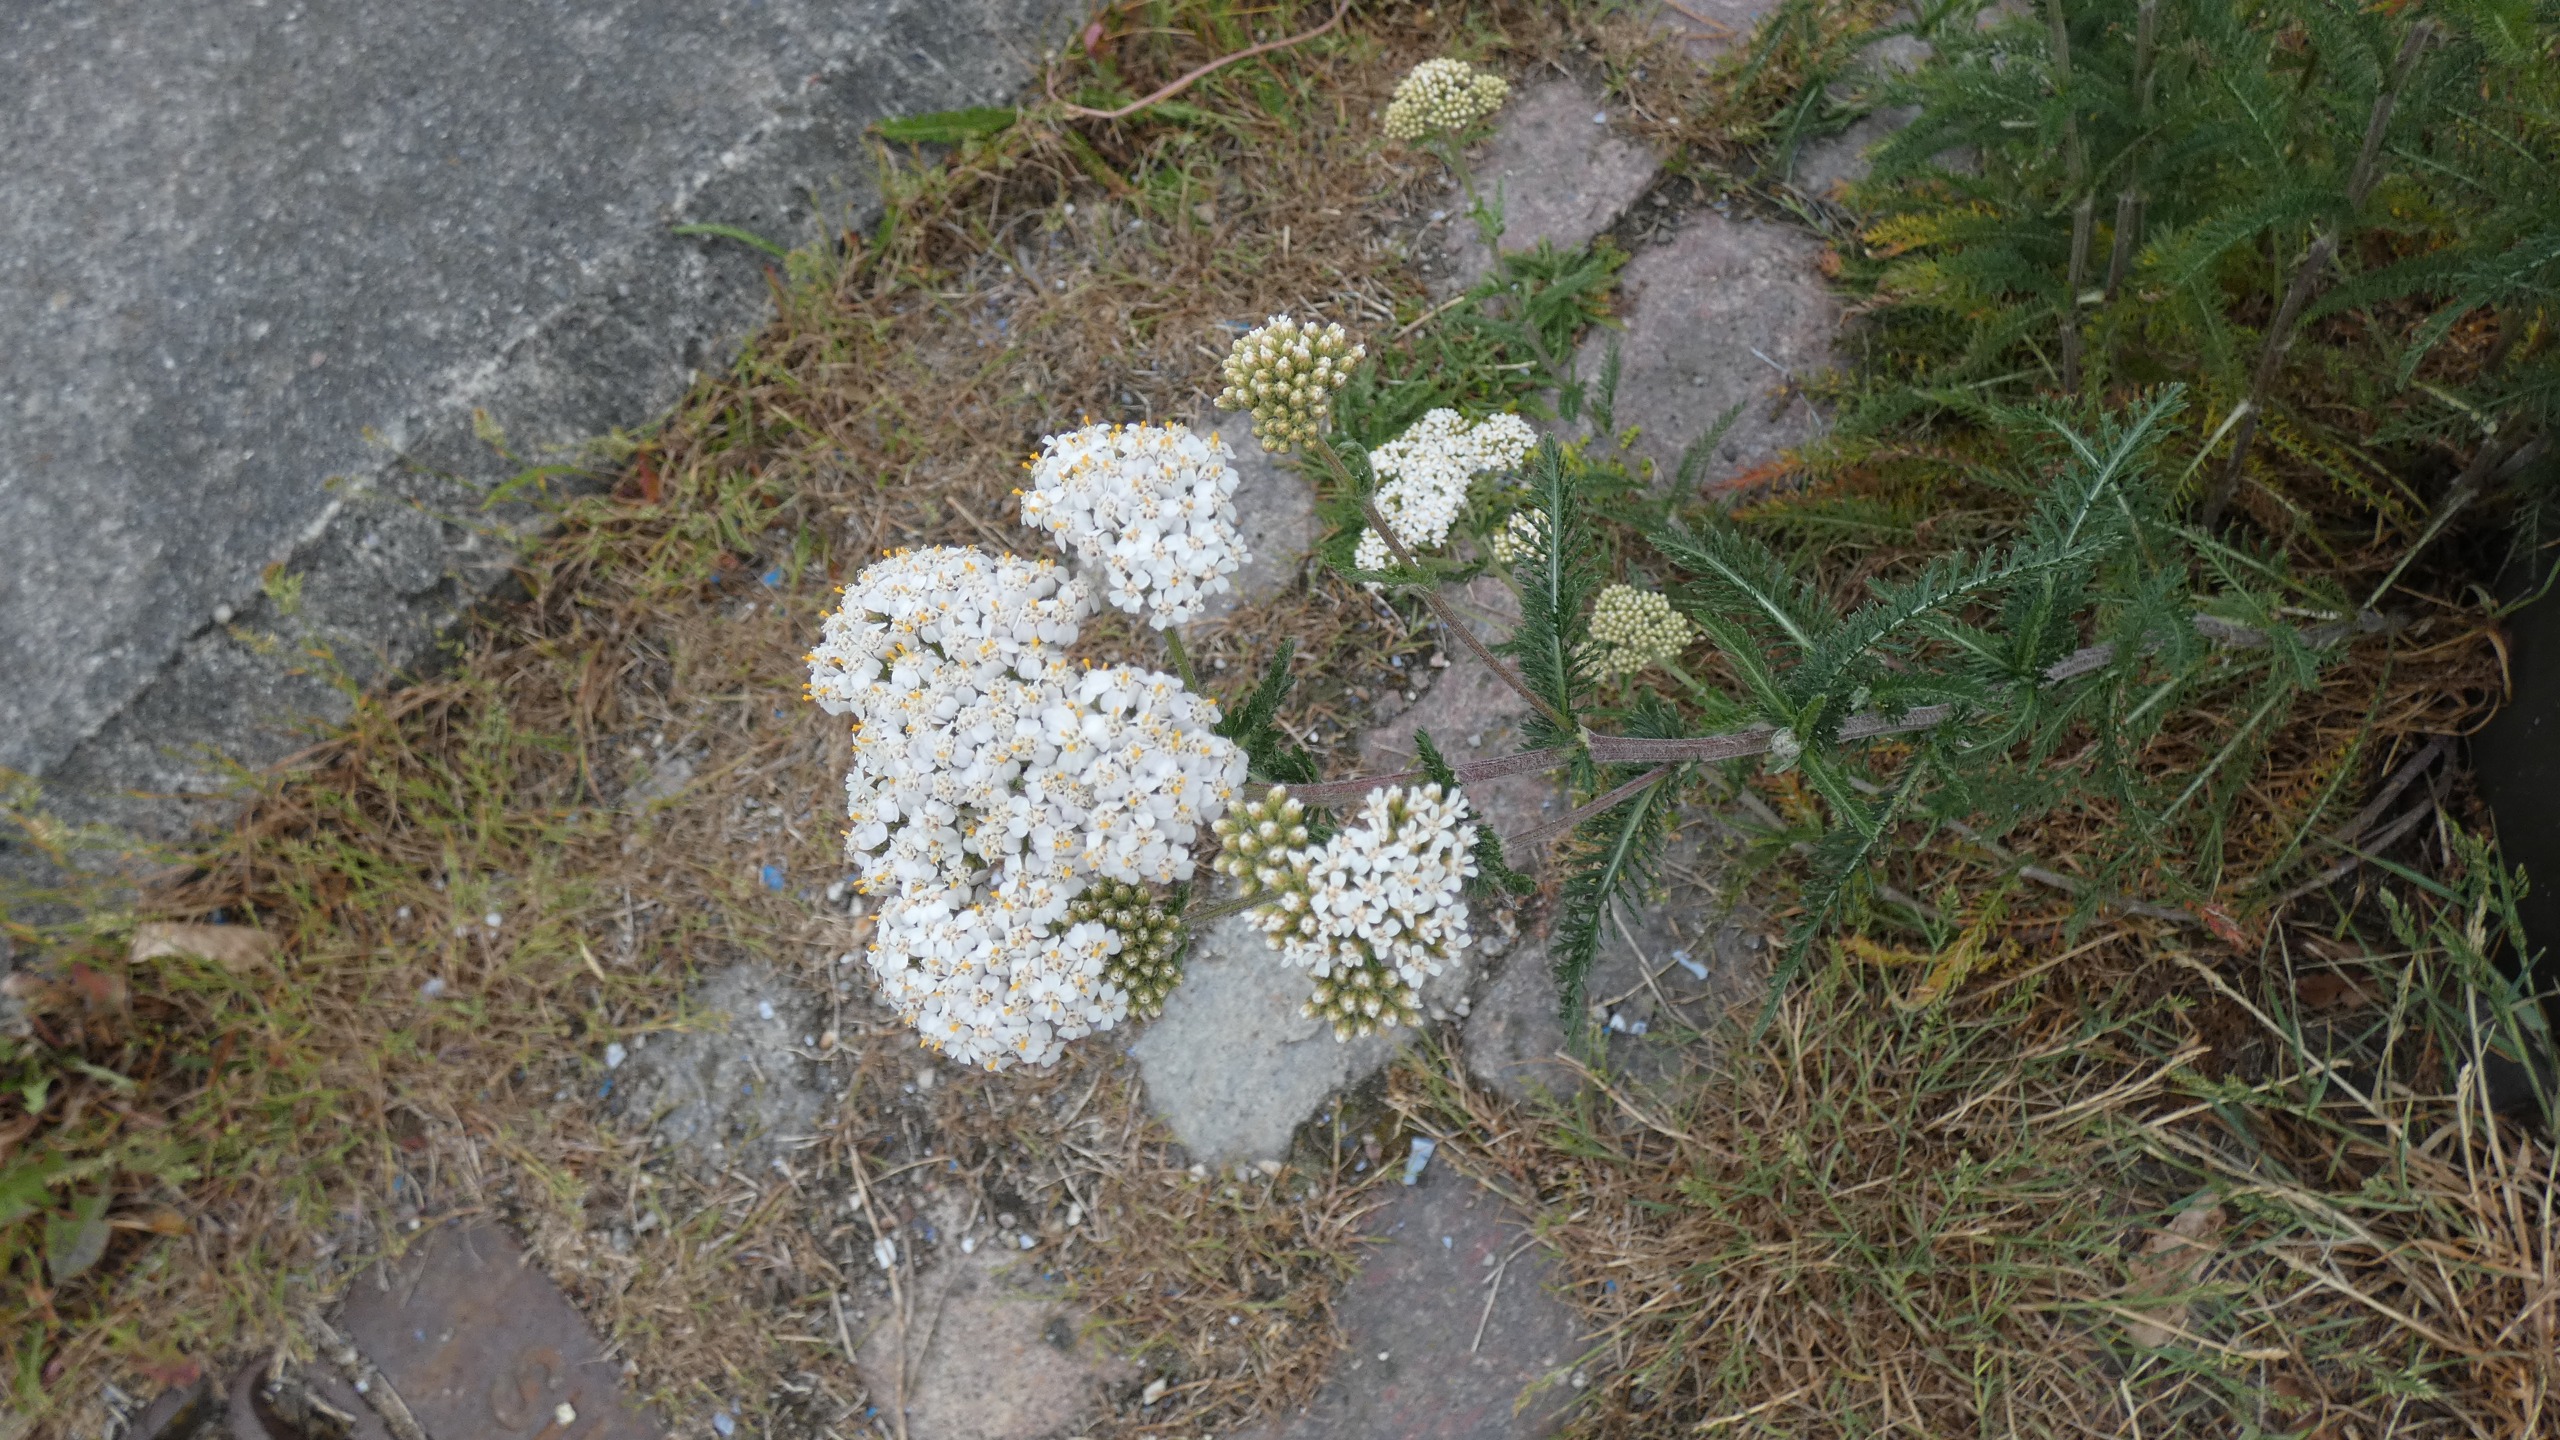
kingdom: Plantae
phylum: Tracheophyta
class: Magnoliopsida
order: Asterales
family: Asteraceae
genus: Achillea
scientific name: Achillea millefolium
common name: Almindelig røllike
